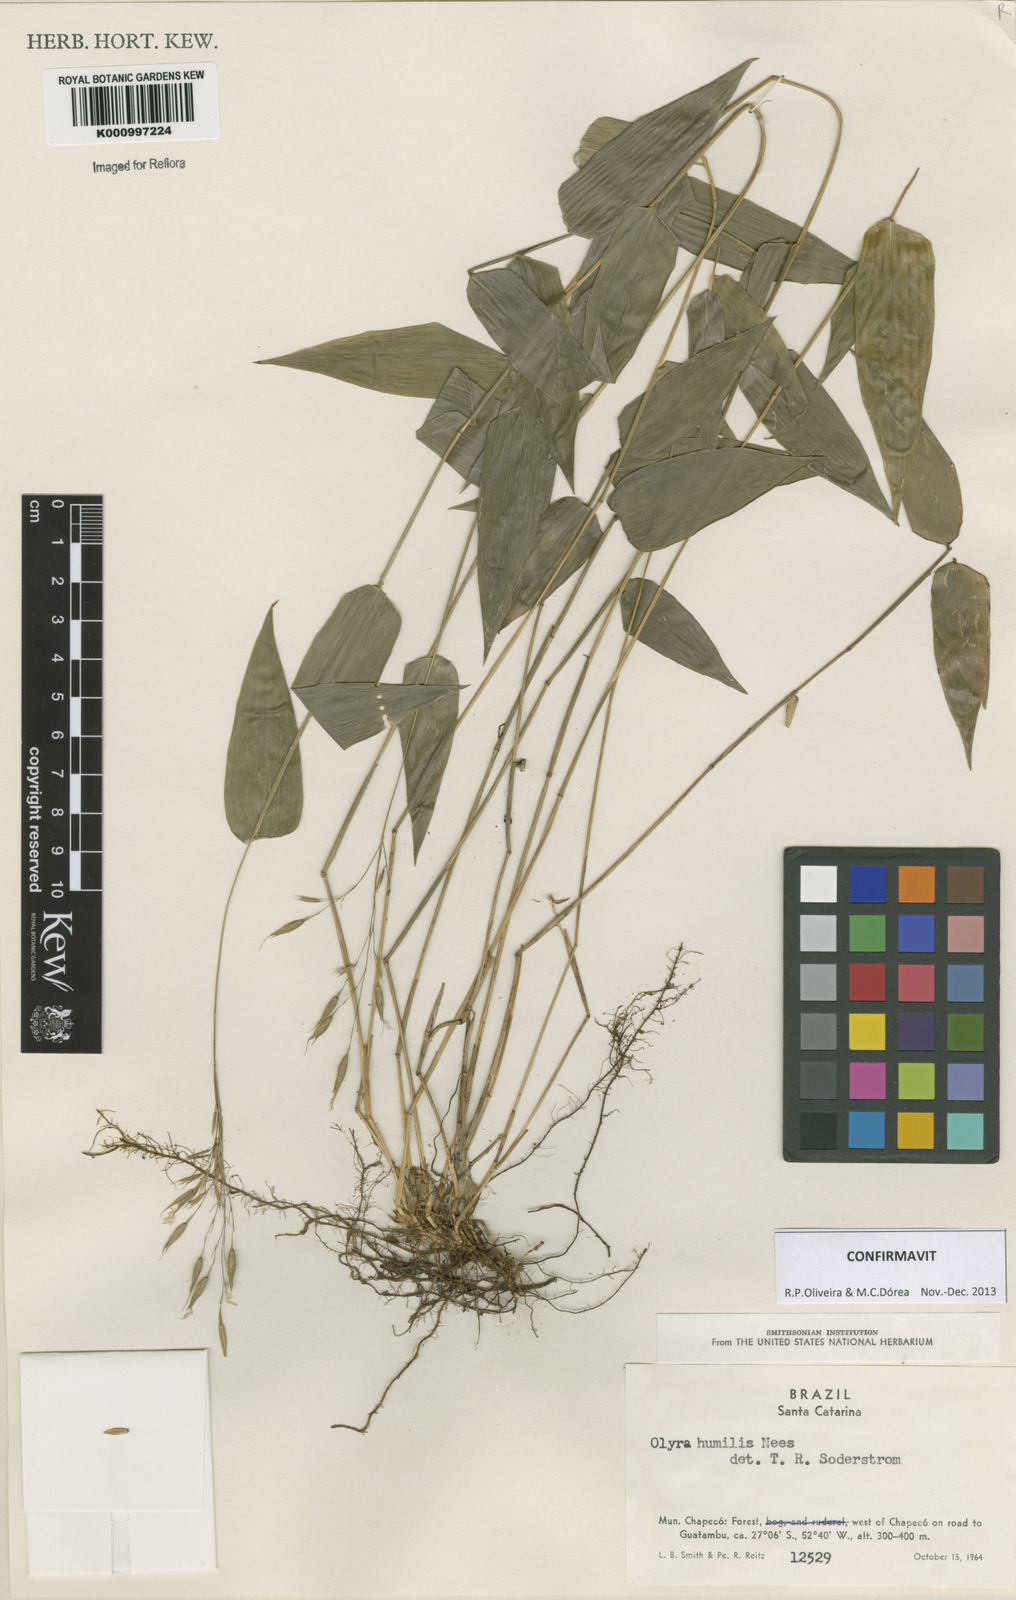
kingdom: Plantae
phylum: Tracheophyta
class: Liliopsida
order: Poales
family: Poaceae
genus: Olyra
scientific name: Olyra humilis
